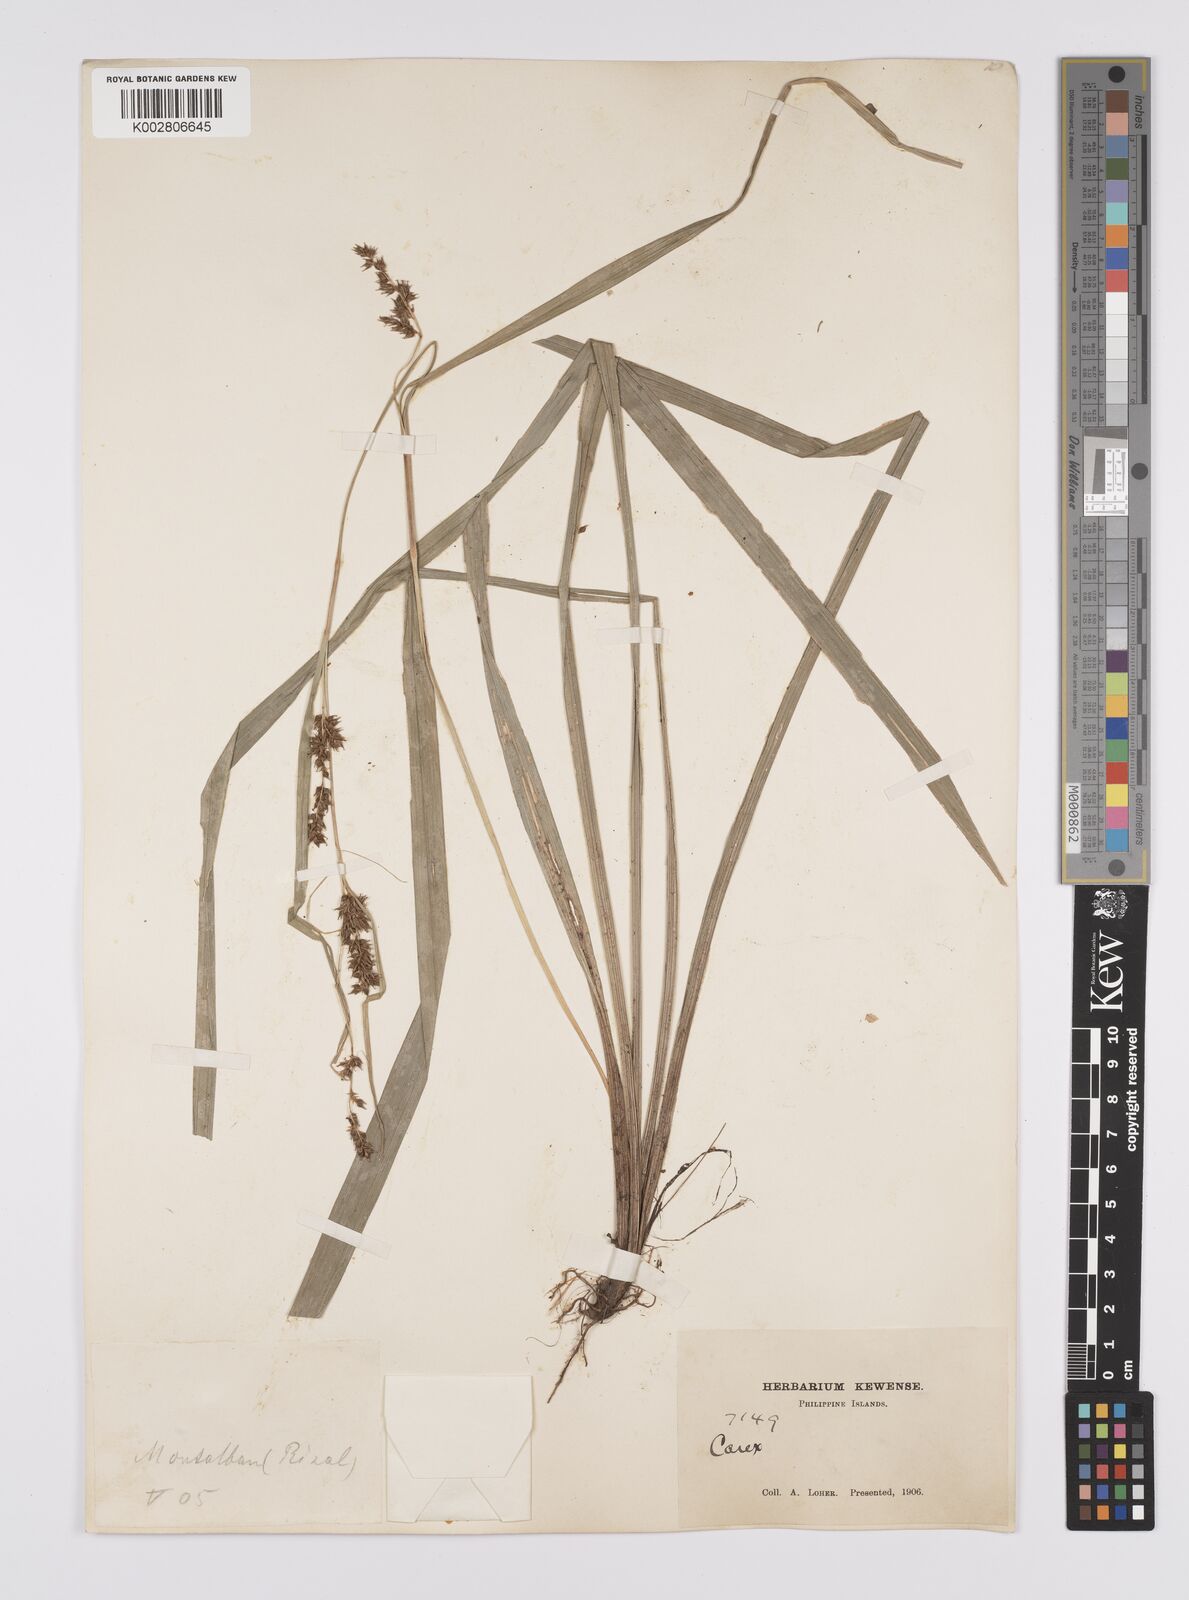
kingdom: Plantae
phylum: Tracheophyta
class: Liliopsida
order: Poales
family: Cyperaceae
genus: Carex
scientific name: Carex nodiflora
